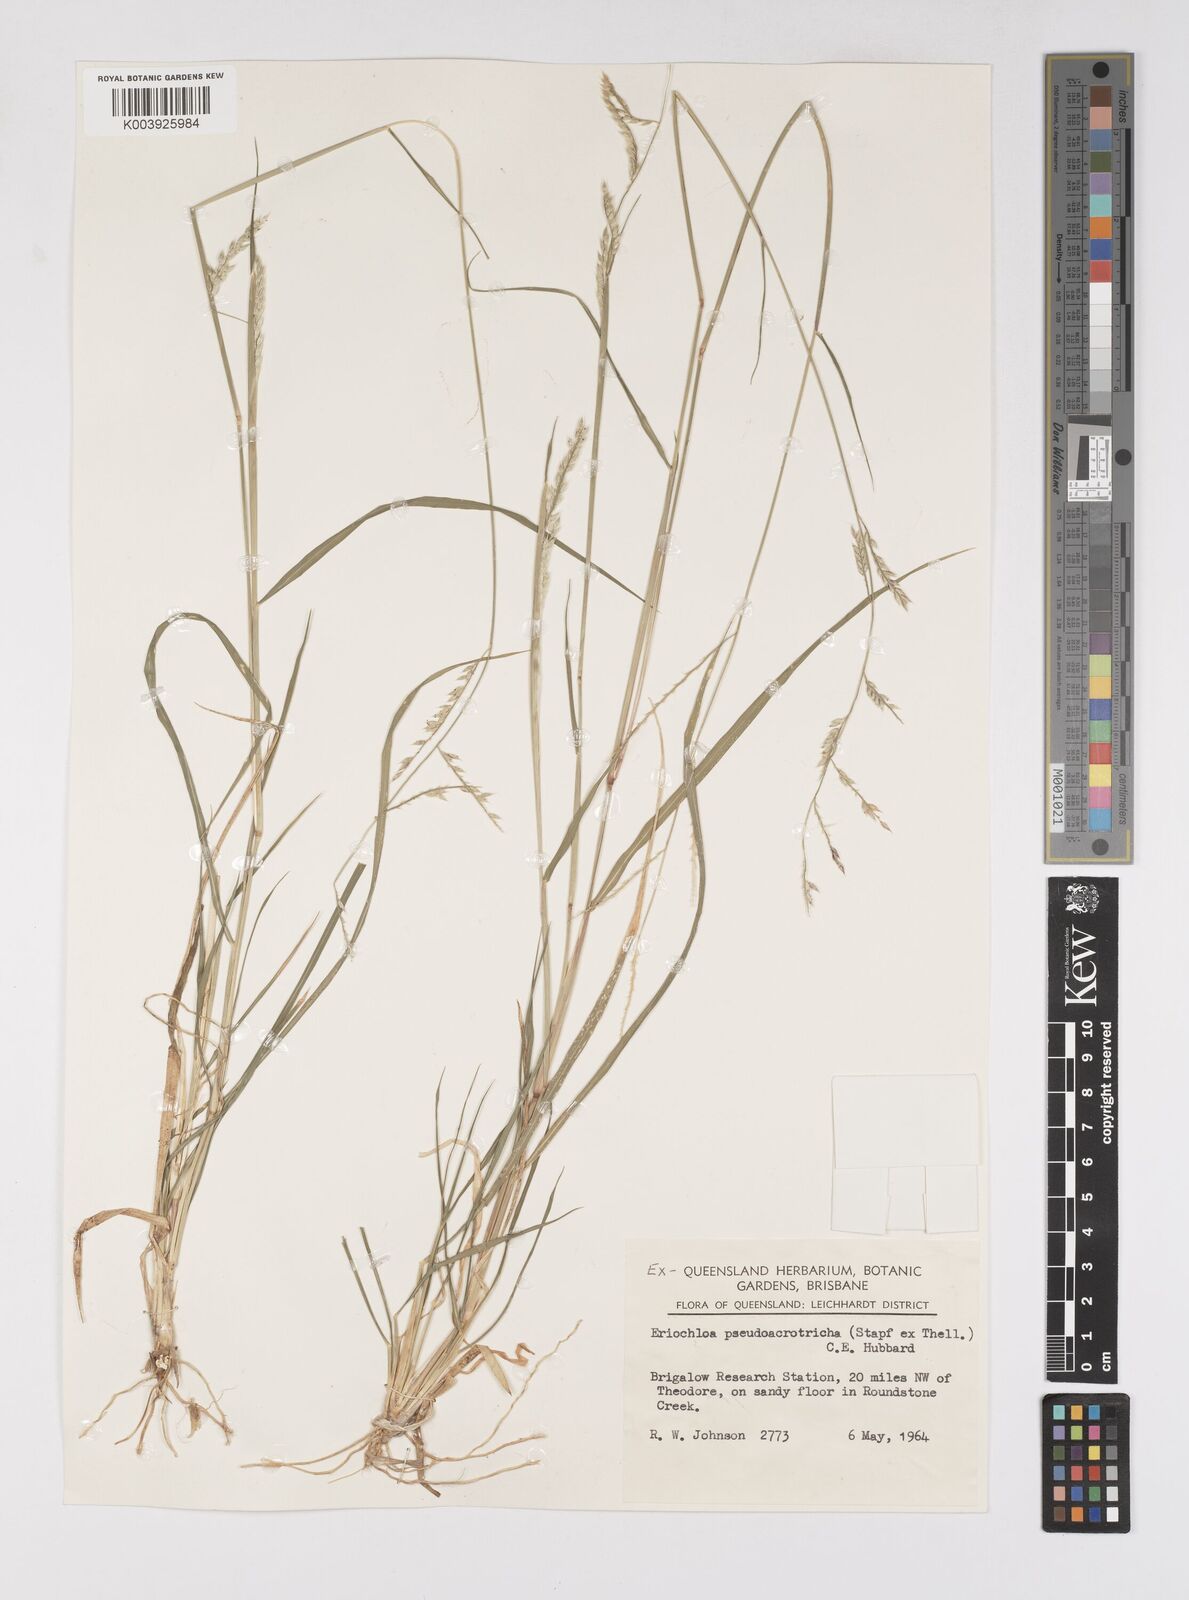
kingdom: Plantae
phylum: Tracheophyta
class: Liliopsida
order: Poales
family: Poaceae
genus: Eriochloa
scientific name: Eriochloa pseudoacrotricha
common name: Perennial cup-grass
